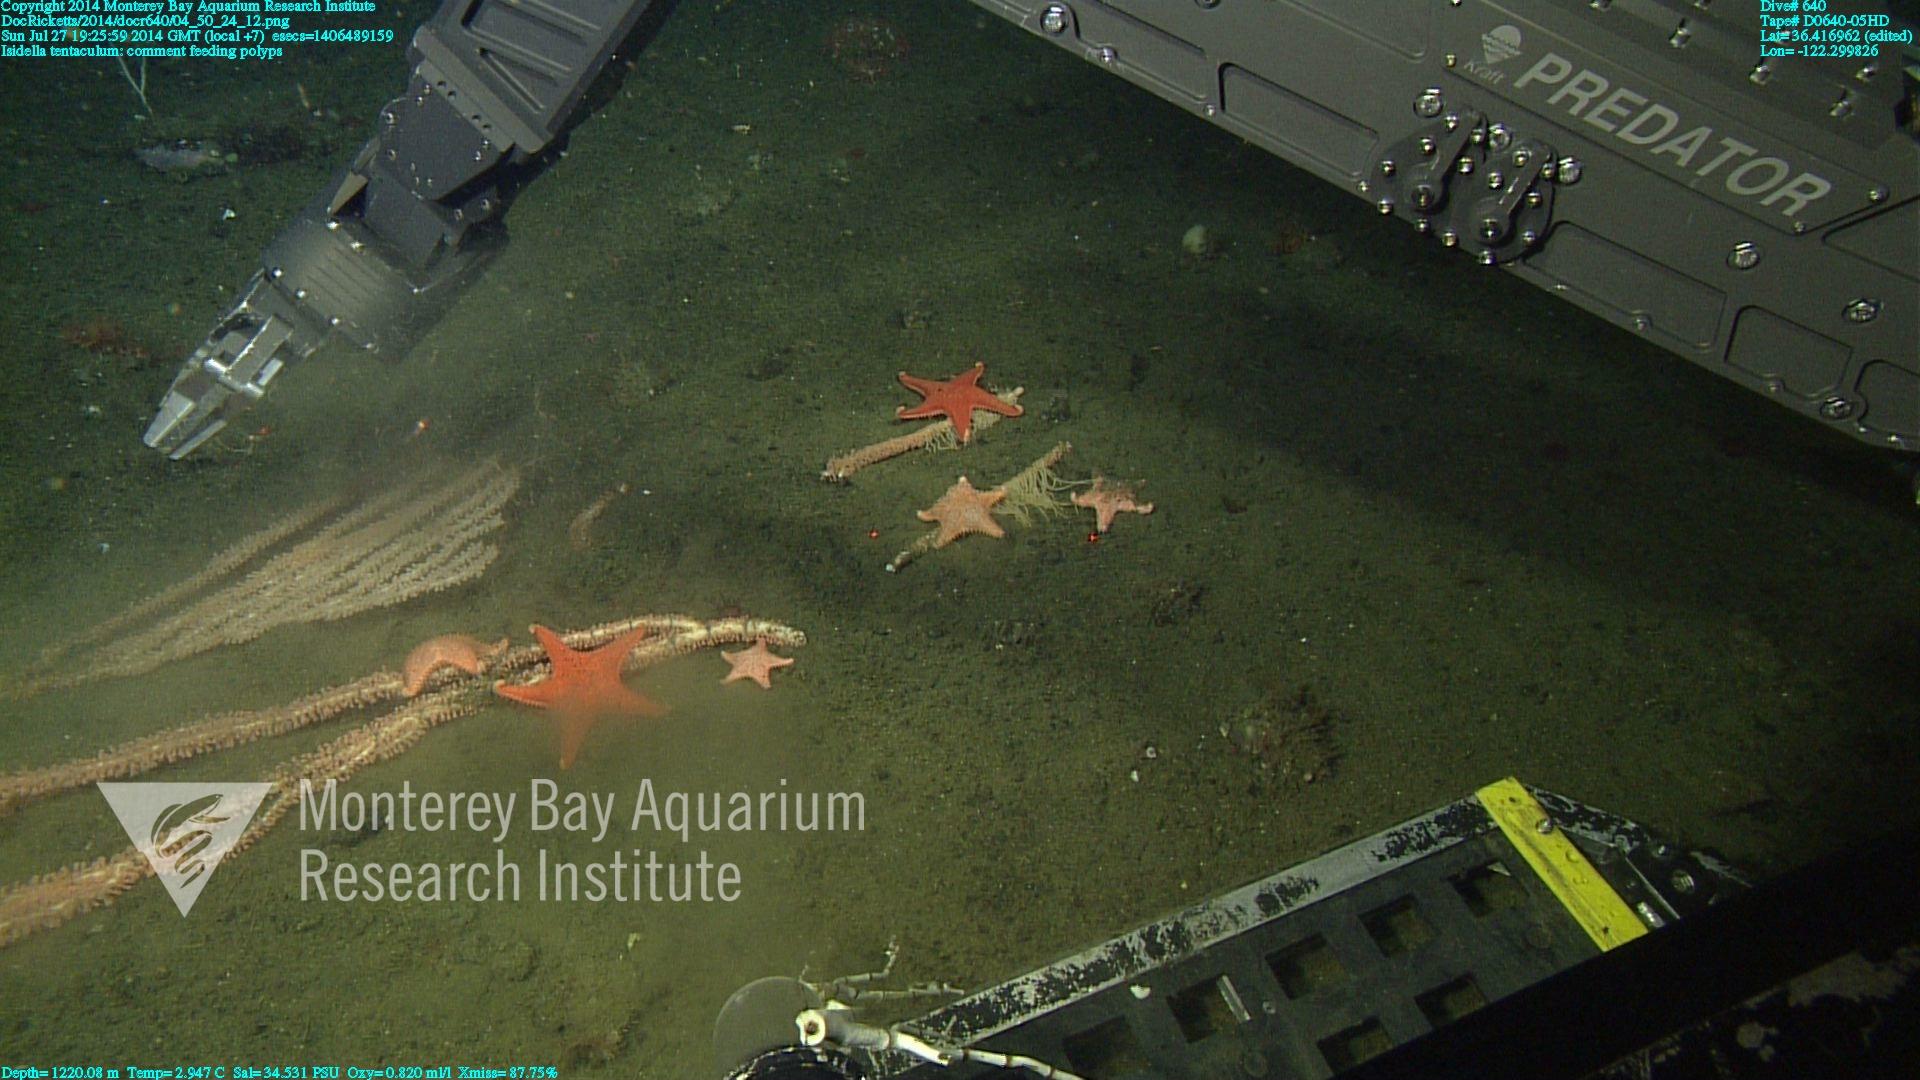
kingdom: Animalia
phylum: Cnidaria
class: Anthozoa
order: Scleralcyonacea
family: Keratoisididae
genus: Isidella
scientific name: Isidella tentaculum
